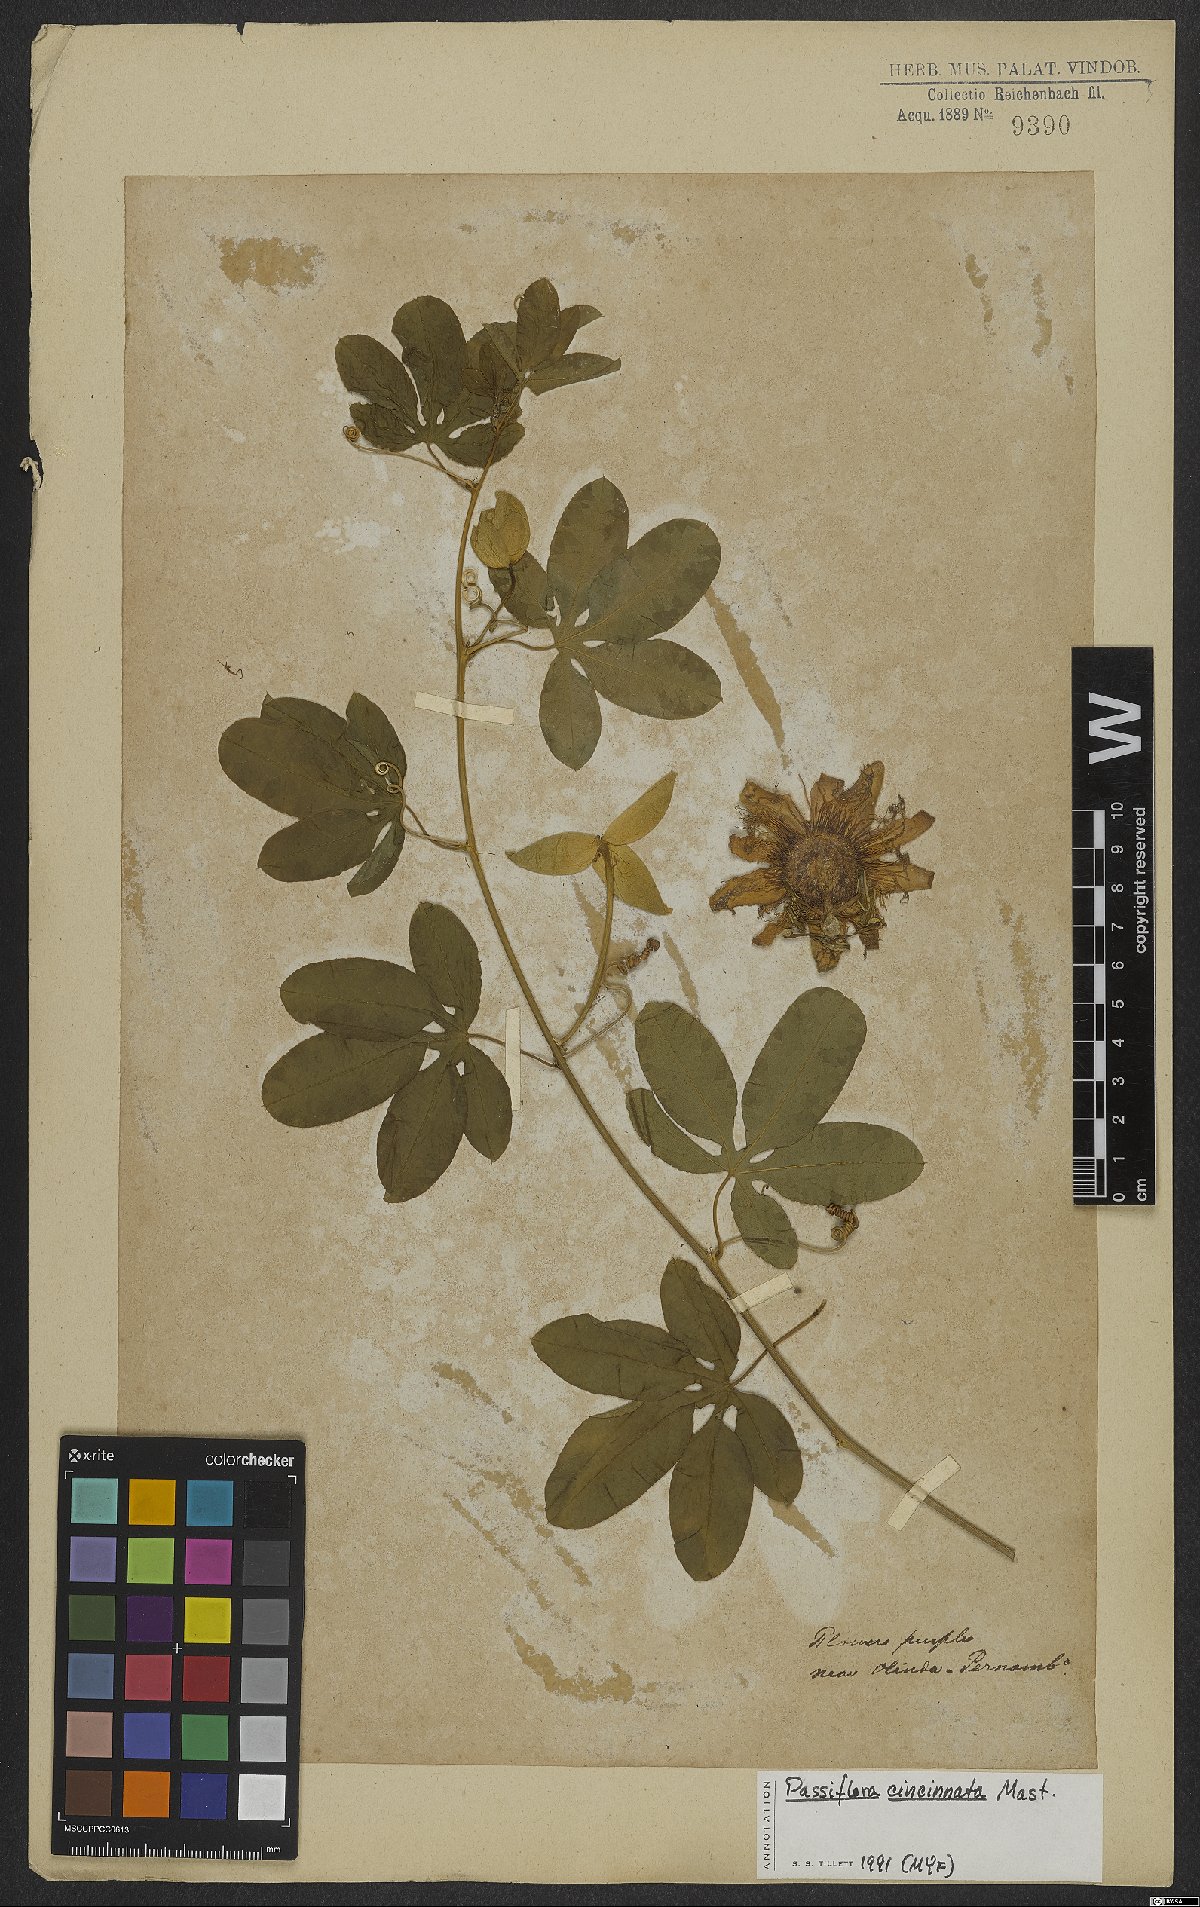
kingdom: Plantae
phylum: Tracheophyta
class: Magnoliopsida
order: Malpighiales
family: Passifloraceae
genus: Passiflora
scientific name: Passiflora cincinnata
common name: Crato passionvine
